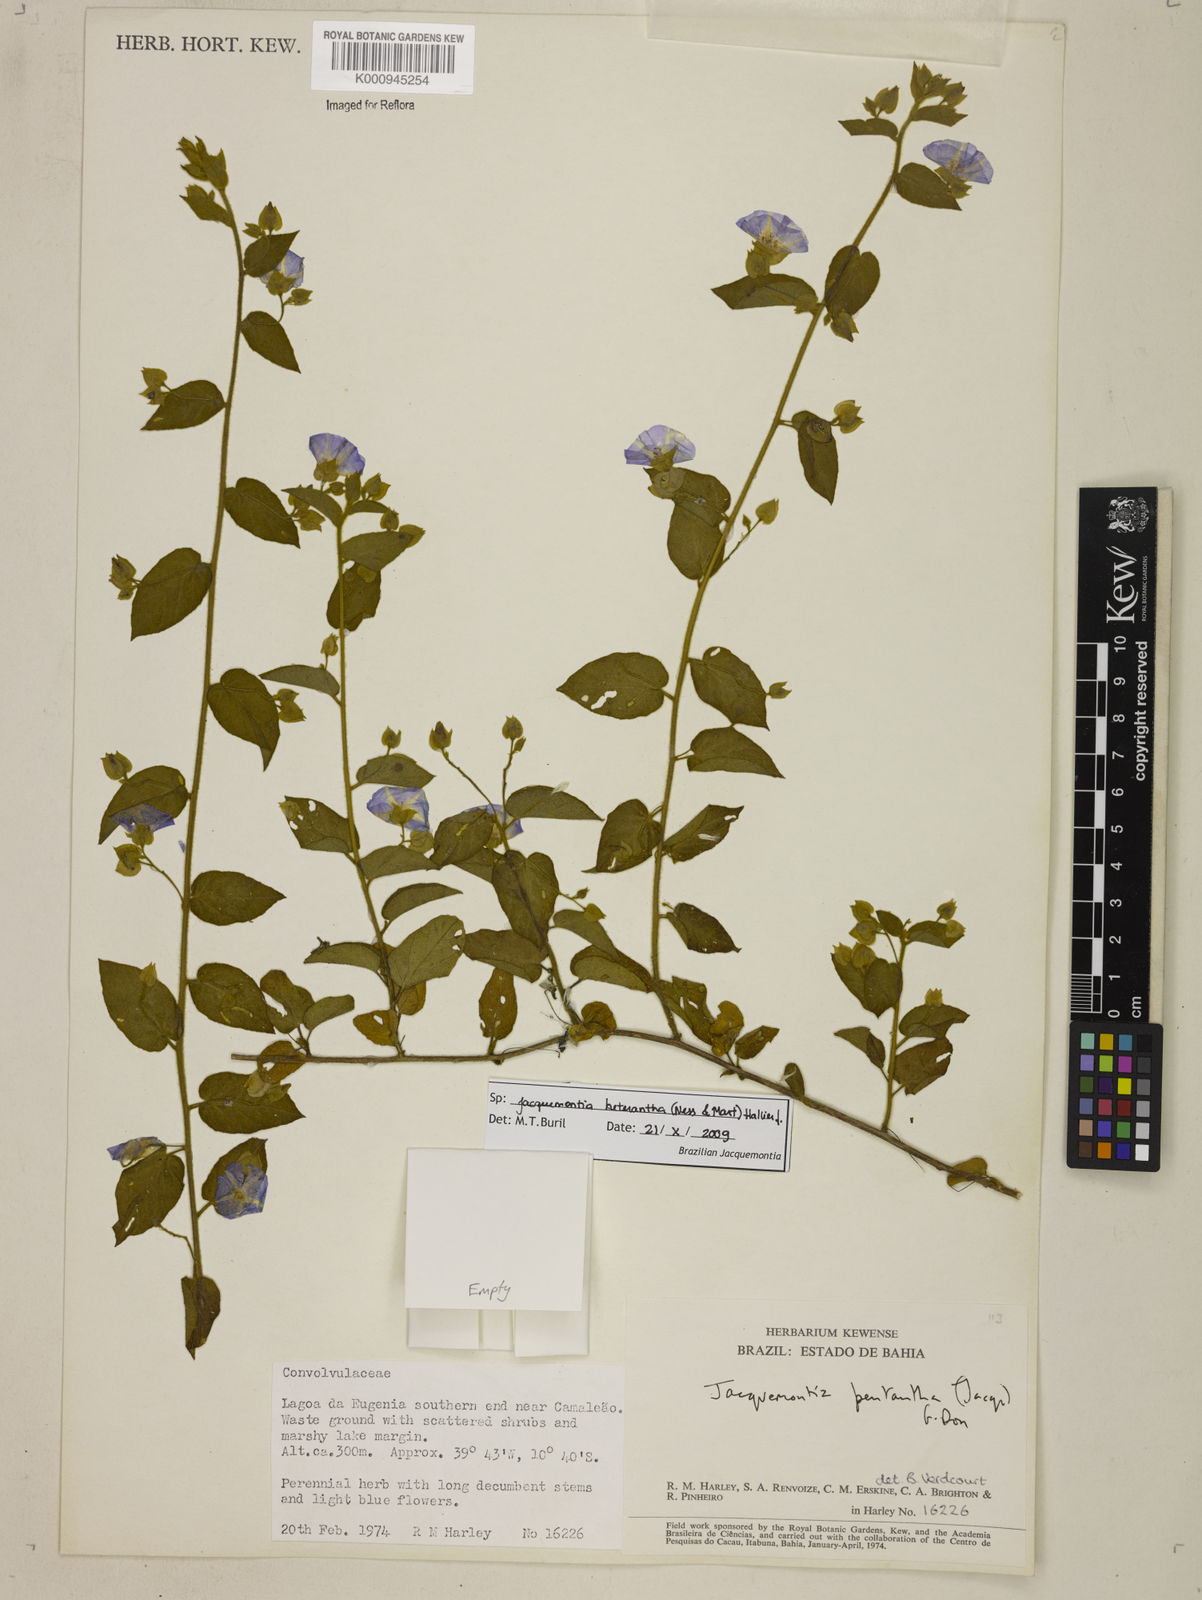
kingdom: Plantae
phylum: Tracheophyta
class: Magnoliopsida
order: Solanales
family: Convolvulaceae
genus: Jacquemontia
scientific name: Jacquemontia
